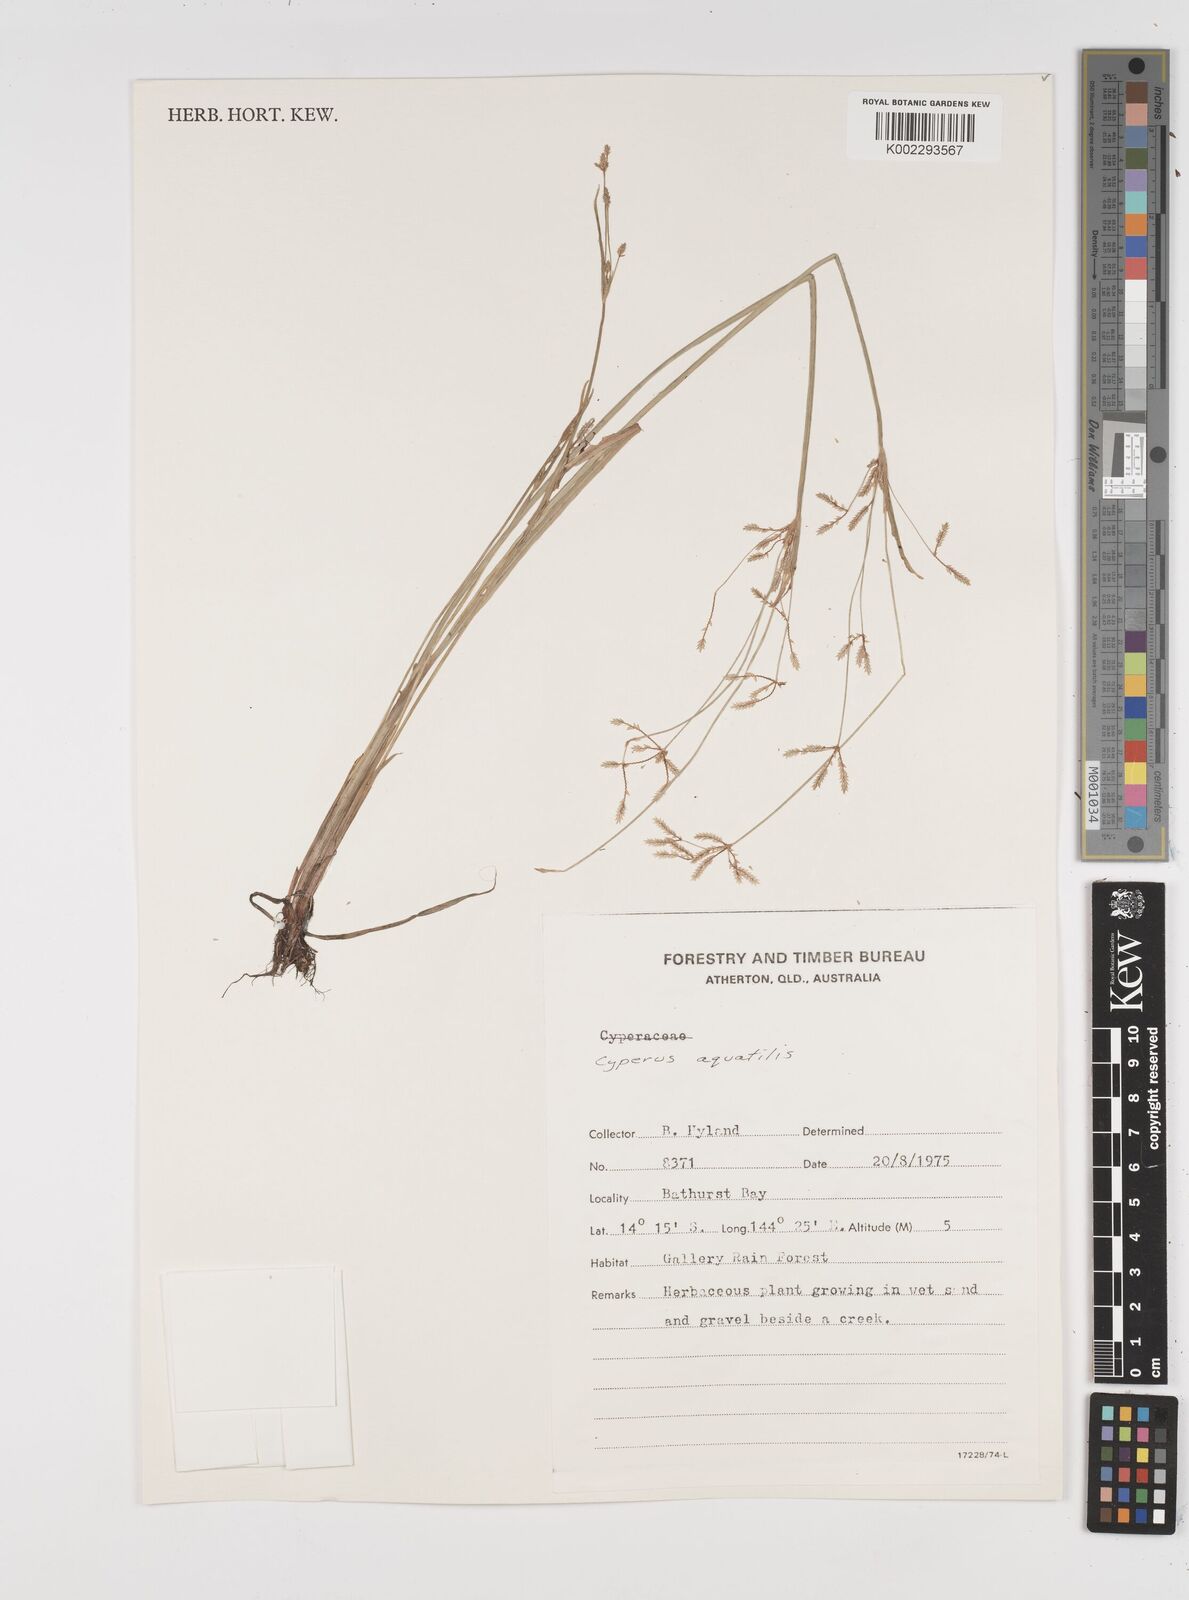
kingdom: Plantae
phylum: Tracheophyta
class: Liliopsida
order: Poales
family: Cyperaceae
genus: Cyperus
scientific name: Cyperus aquatilis
